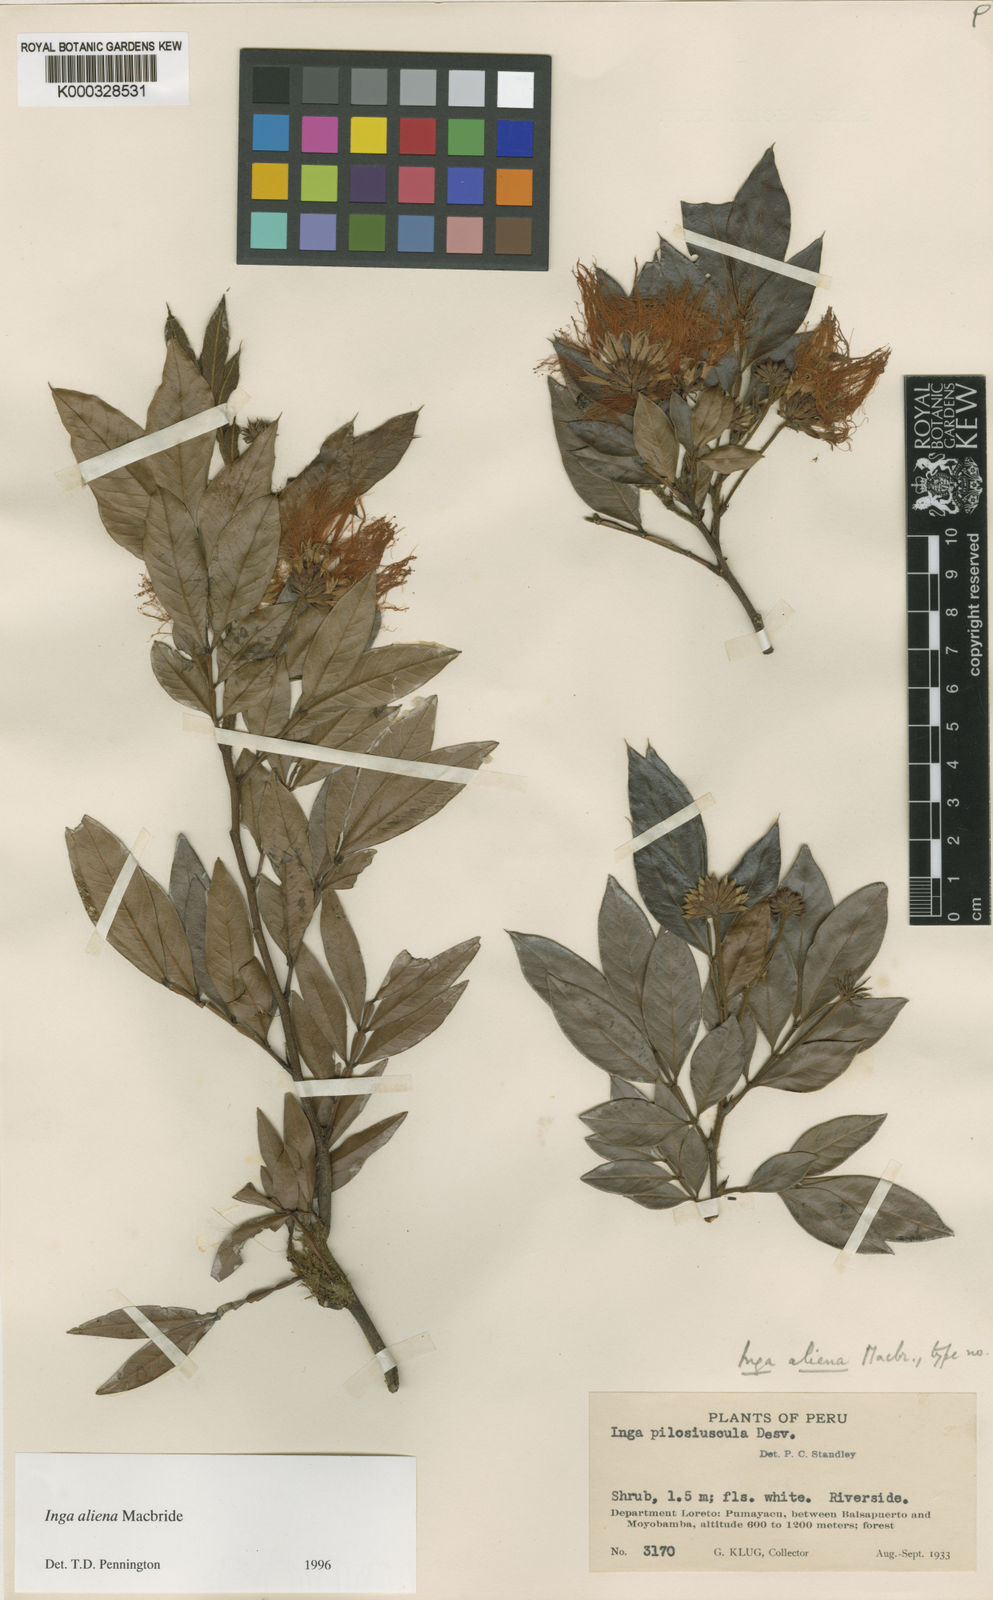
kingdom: Plantae
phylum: Tracheophyta
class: Magnoliopsida
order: Fabales
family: Fabaceae
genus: Inga
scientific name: Inga aliena
